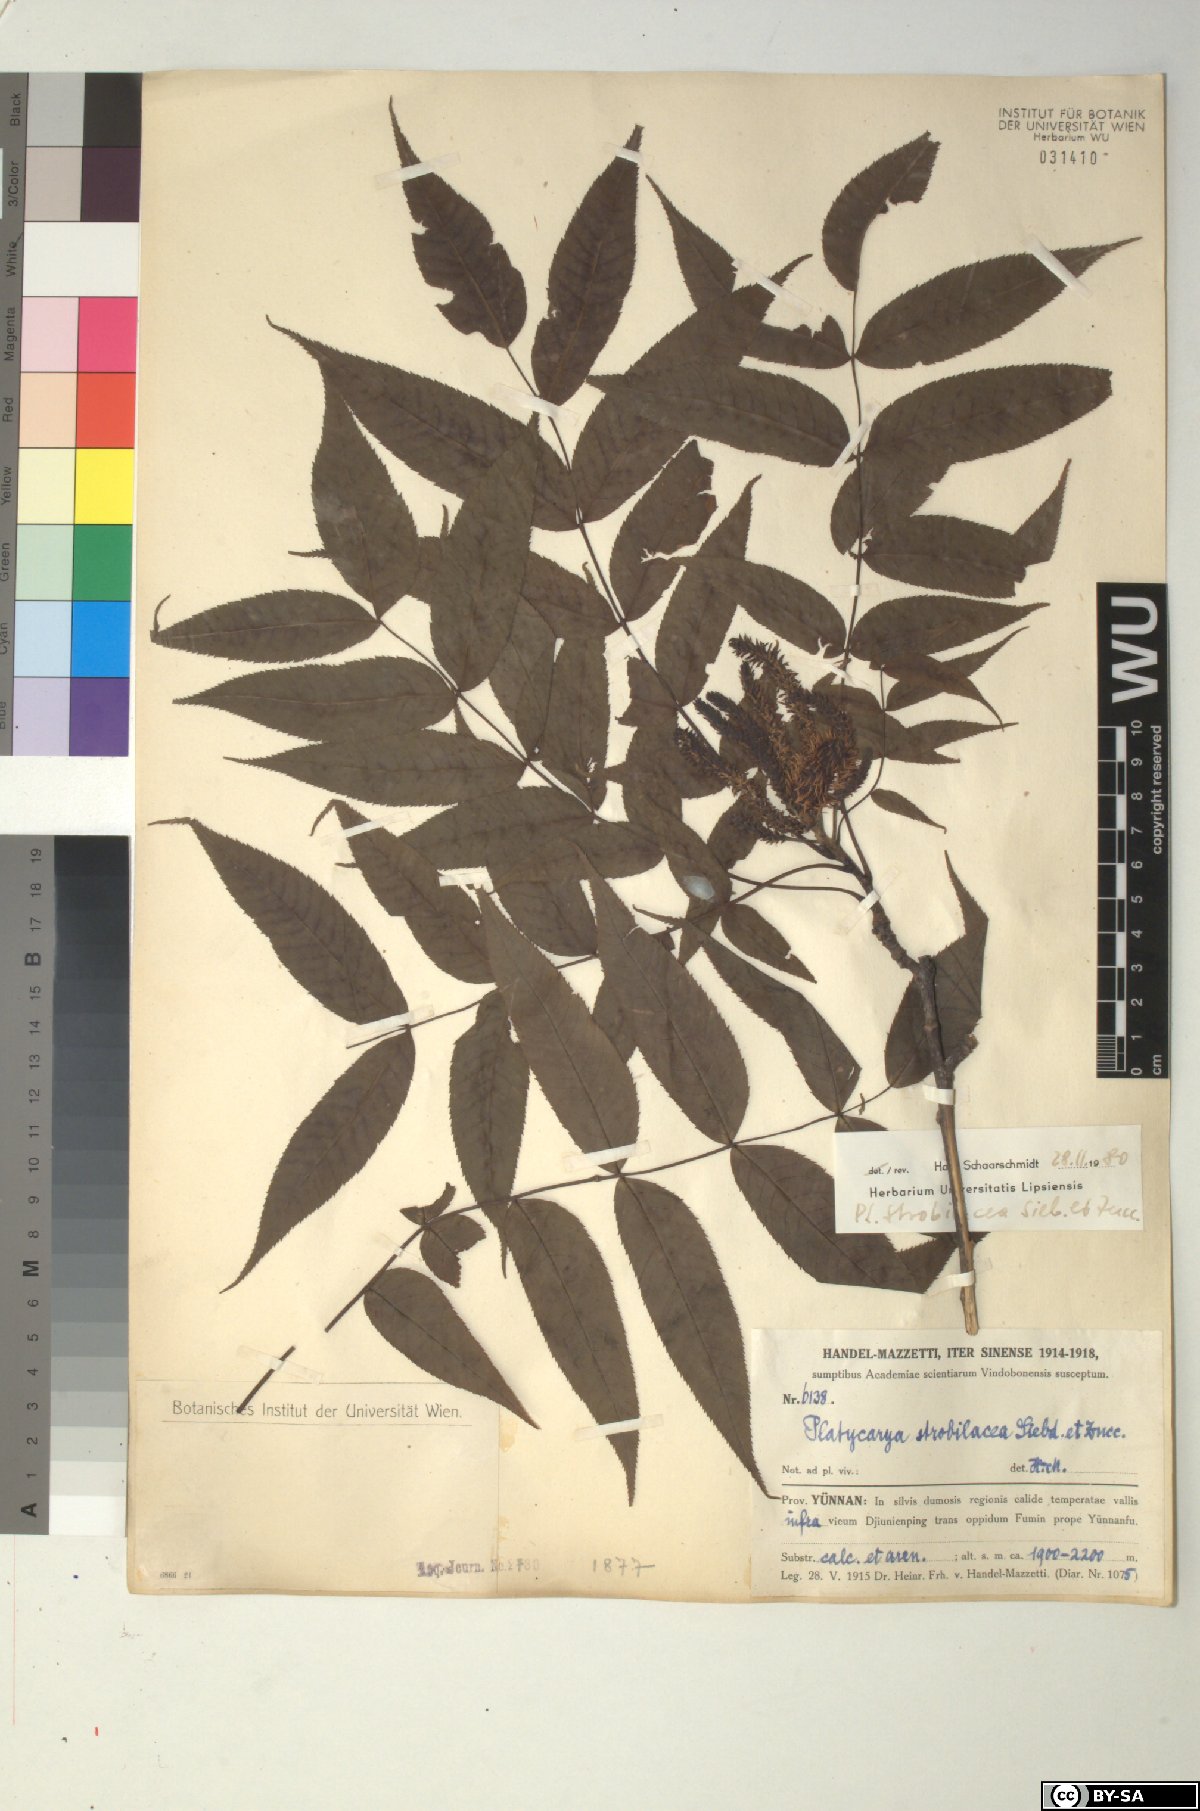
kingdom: Plantae
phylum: Tracheophyta
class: Magnoliopsida
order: Fagales
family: Juglandaceae
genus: Platycarya
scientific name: Platycarya strobilacea
